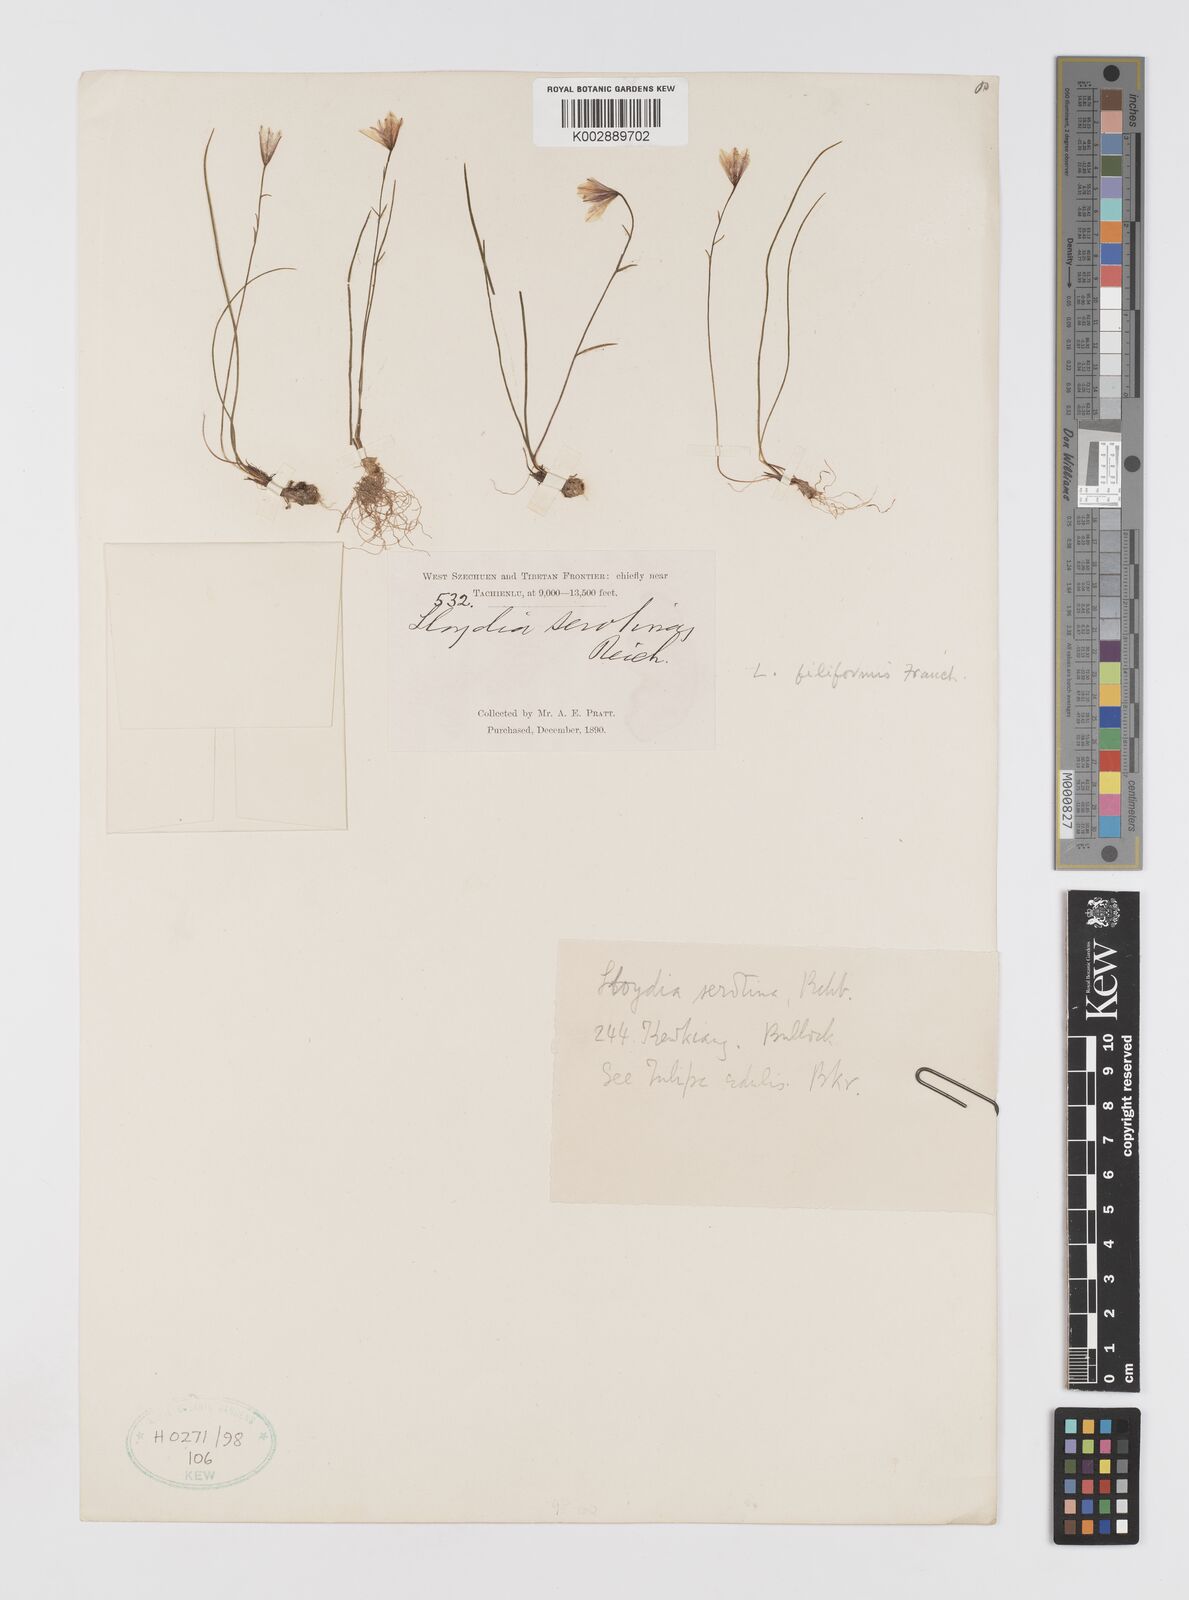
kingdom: Plantae
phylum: Tracheophyta
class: Liliopsida
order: Liliales
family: Liliaceae
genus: Gagea
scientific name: Gagea serotina
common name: Snowdon lily
